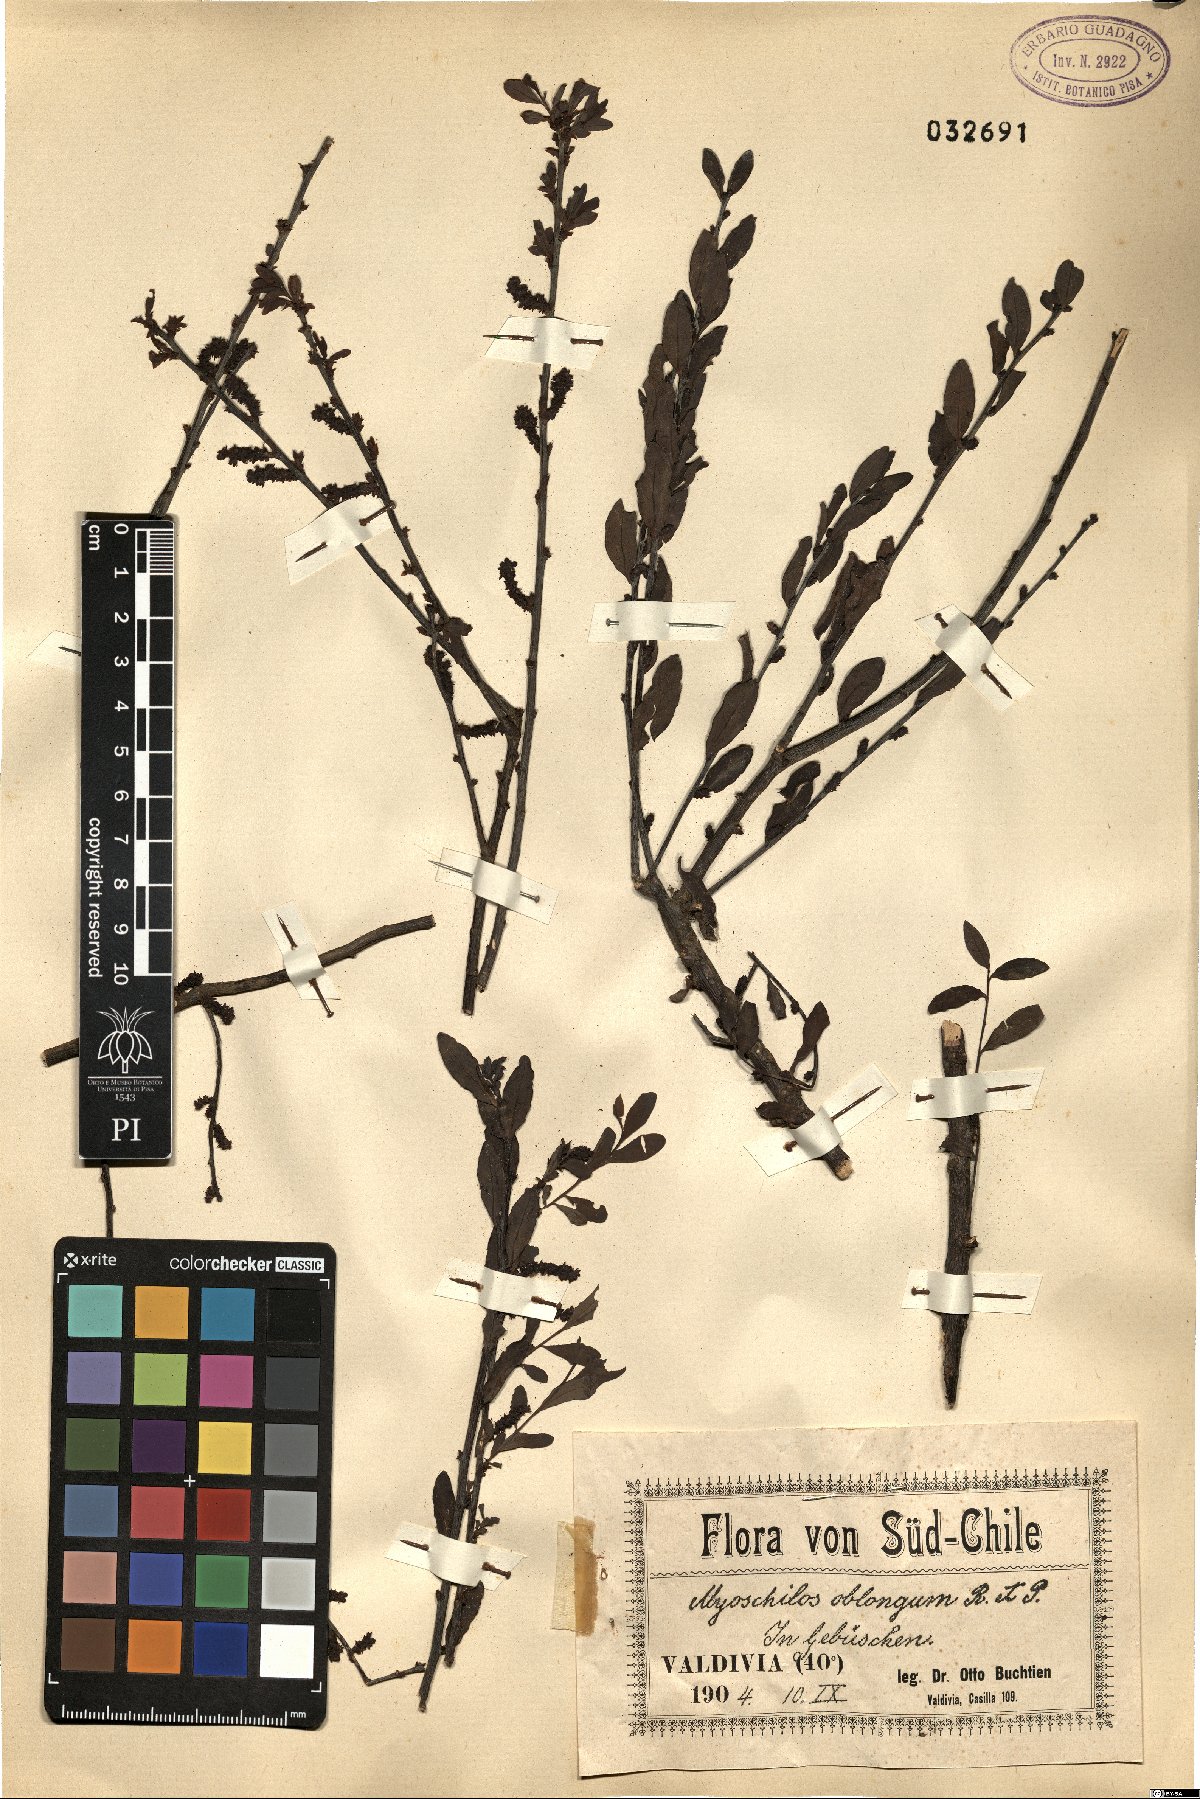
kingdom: Plantae
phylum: Tracheophyta
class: Magnoliopsida
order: Santalales
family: Santalaceae
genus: Myoschilos
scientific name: Myoschilos oblongum
